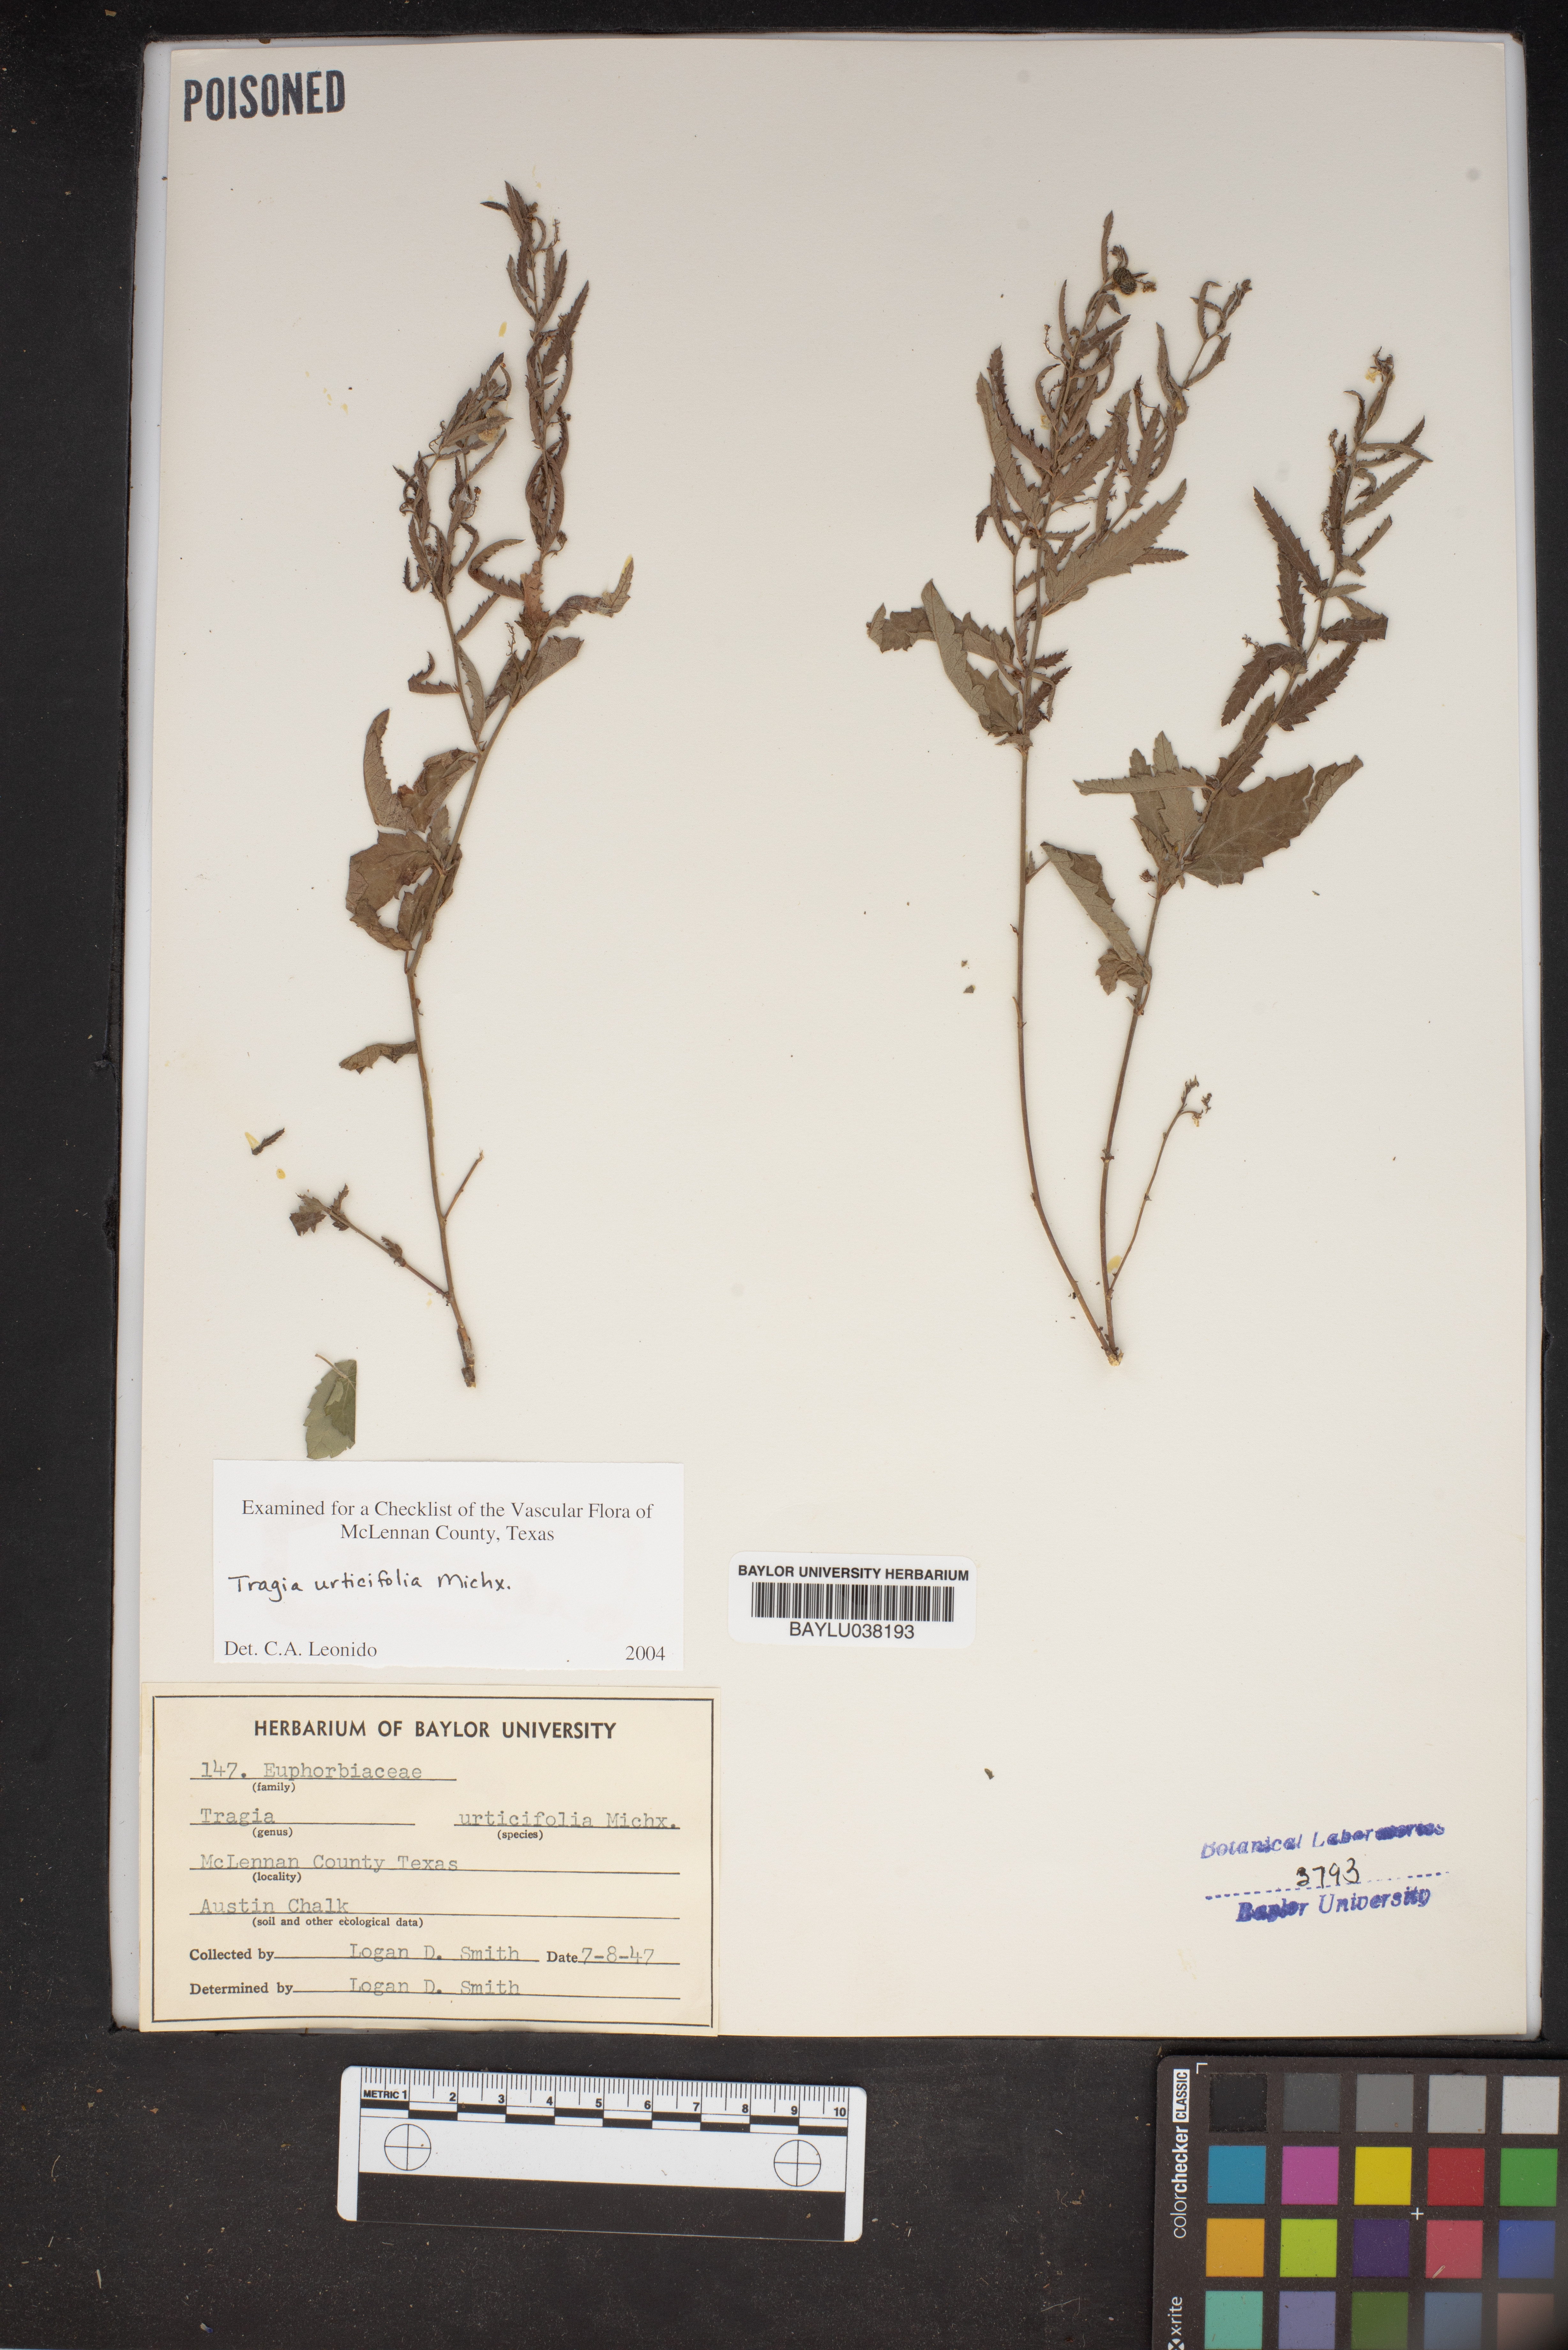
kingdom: Plantae
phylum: Tracheophyta
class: Magnoliopsida
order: Malpighiales
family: Euphorbiaceae
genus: Tragia
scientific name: Tragia urticifolia
